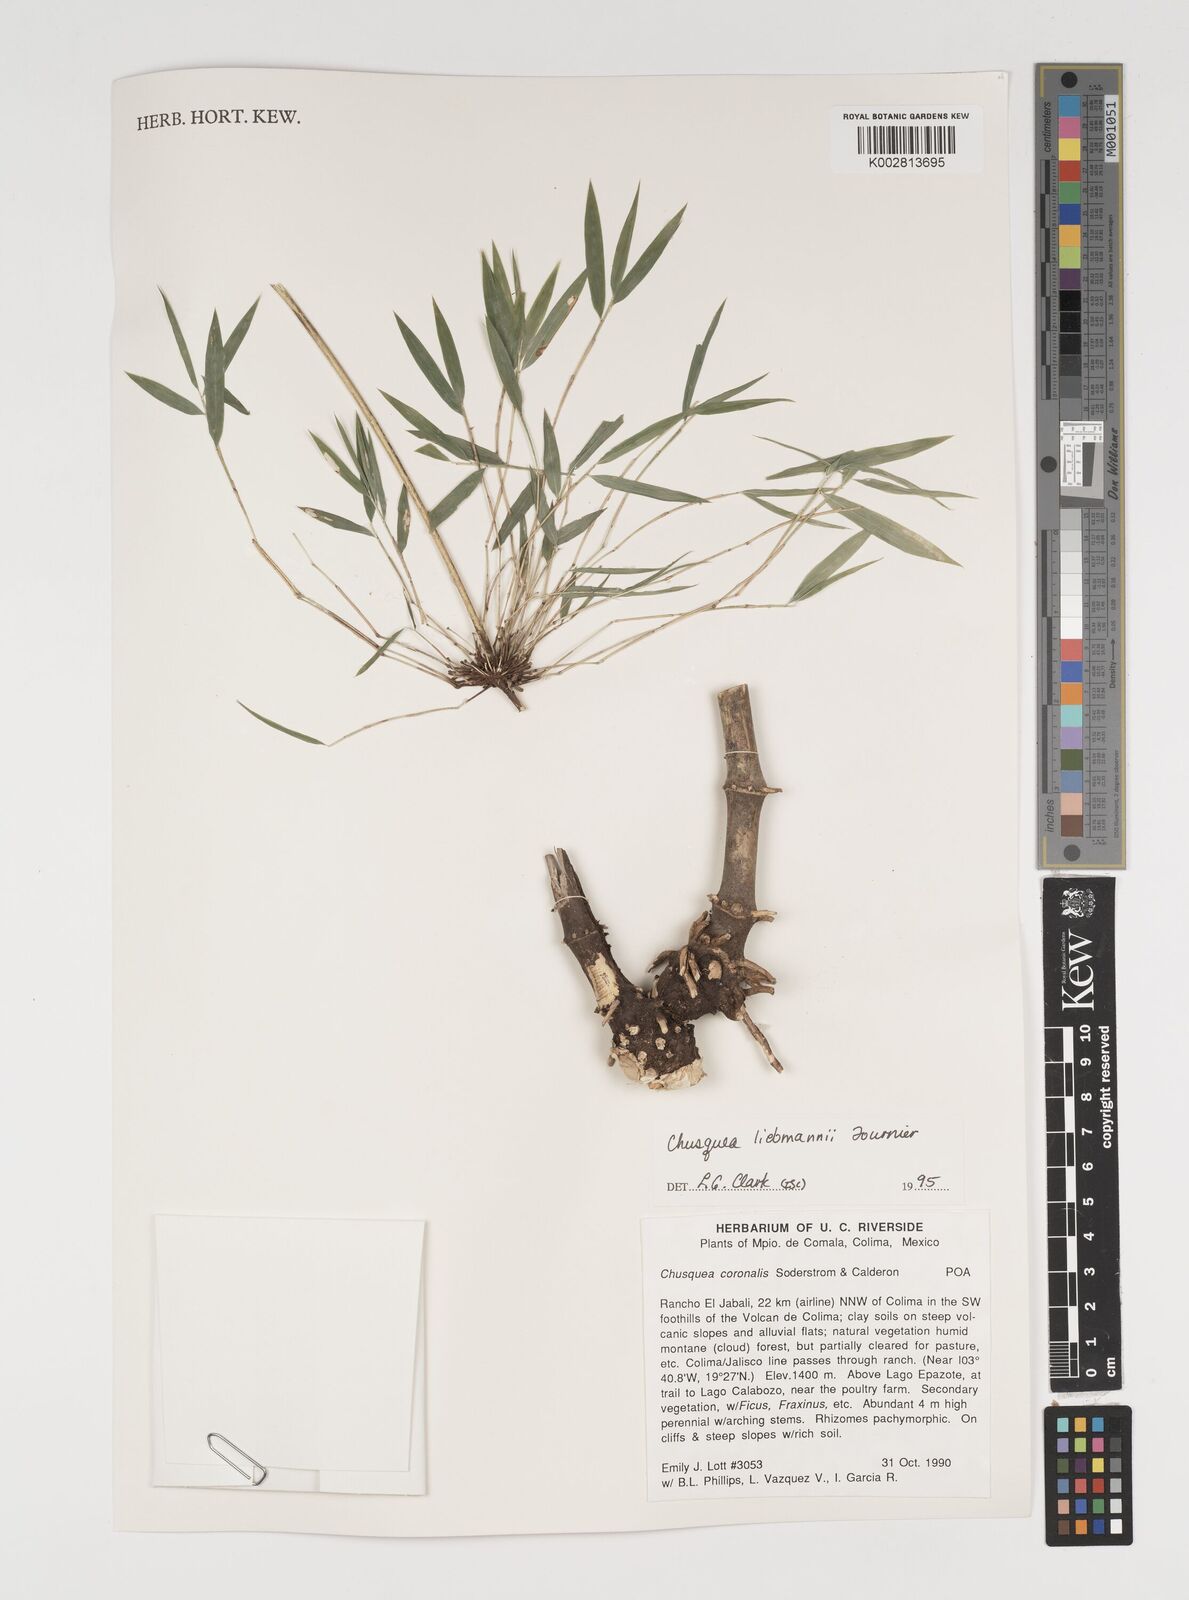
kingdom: Plantae
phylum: Tracheophyta
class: Liliopsida
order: Poales
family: Poaceae
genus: Chusquea
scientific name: Chusquea liebmannii
